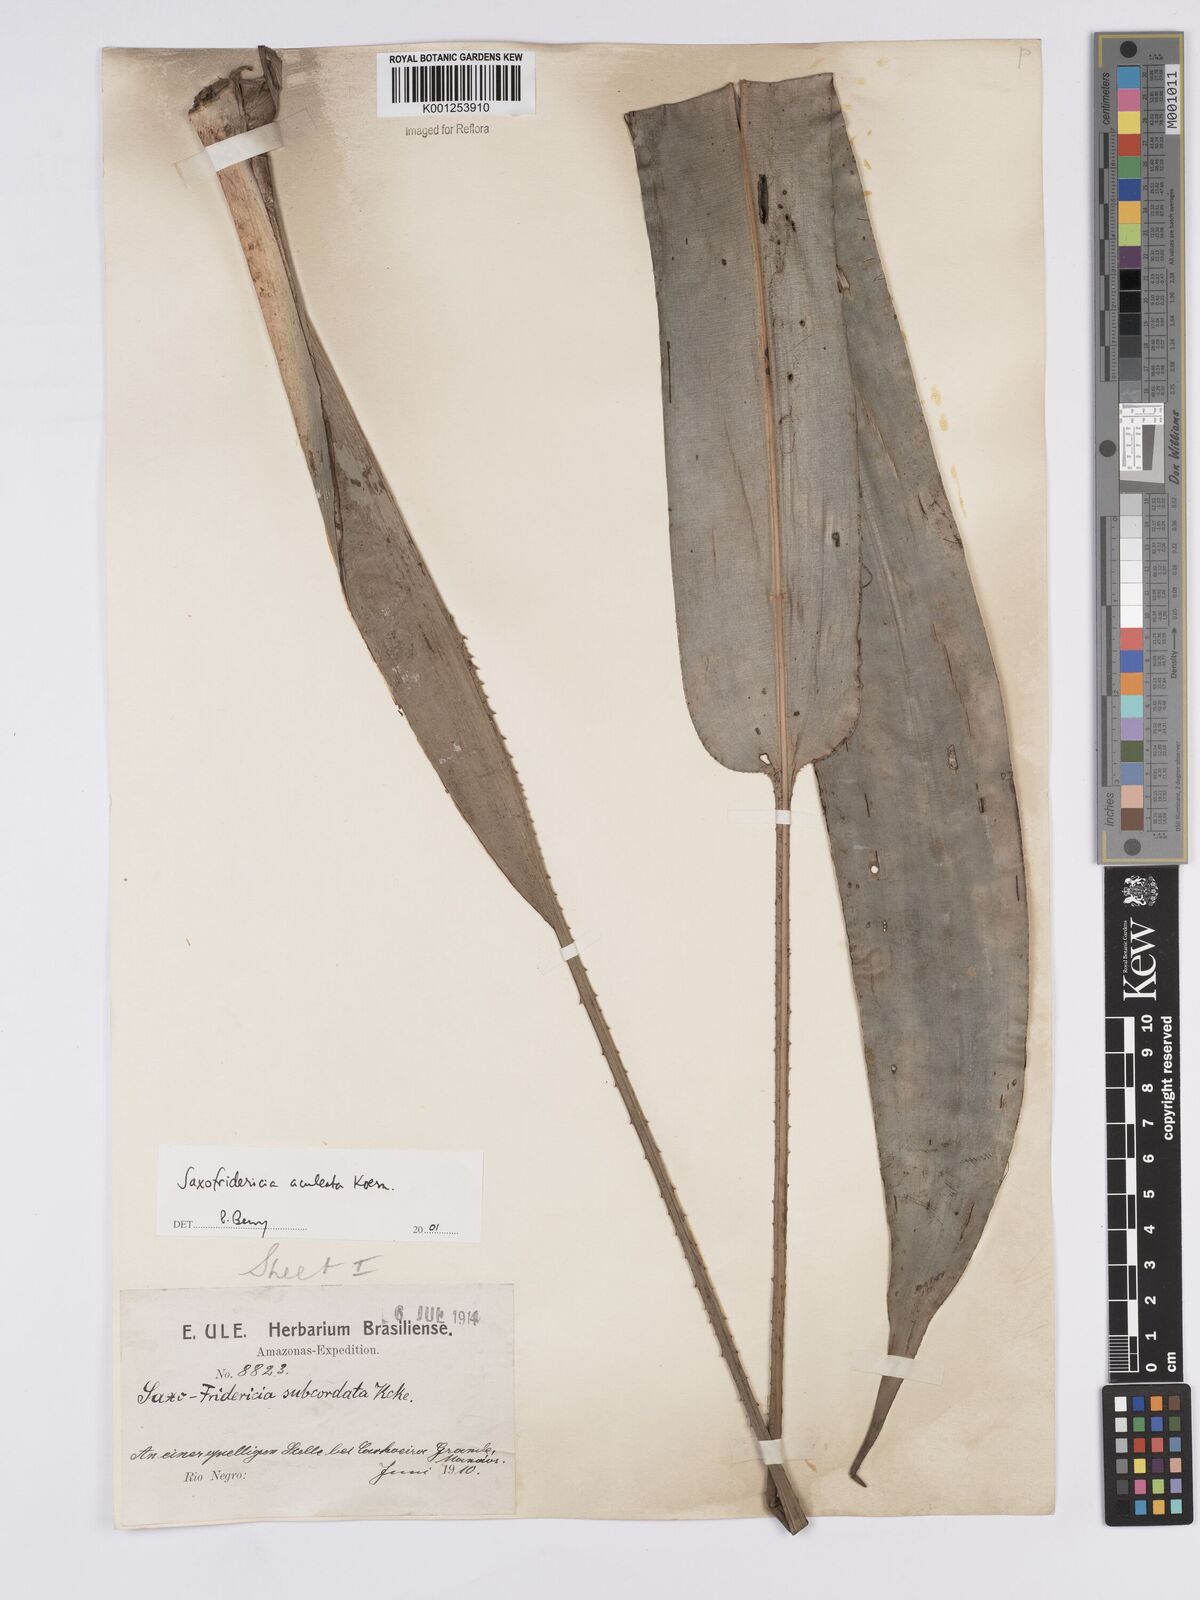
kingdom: Plantae
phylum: Tracheophyta
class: Liliopsida
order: Poales
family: Rapateaceae
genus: Saxofridericia
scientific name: Saxofridericia aculeata
